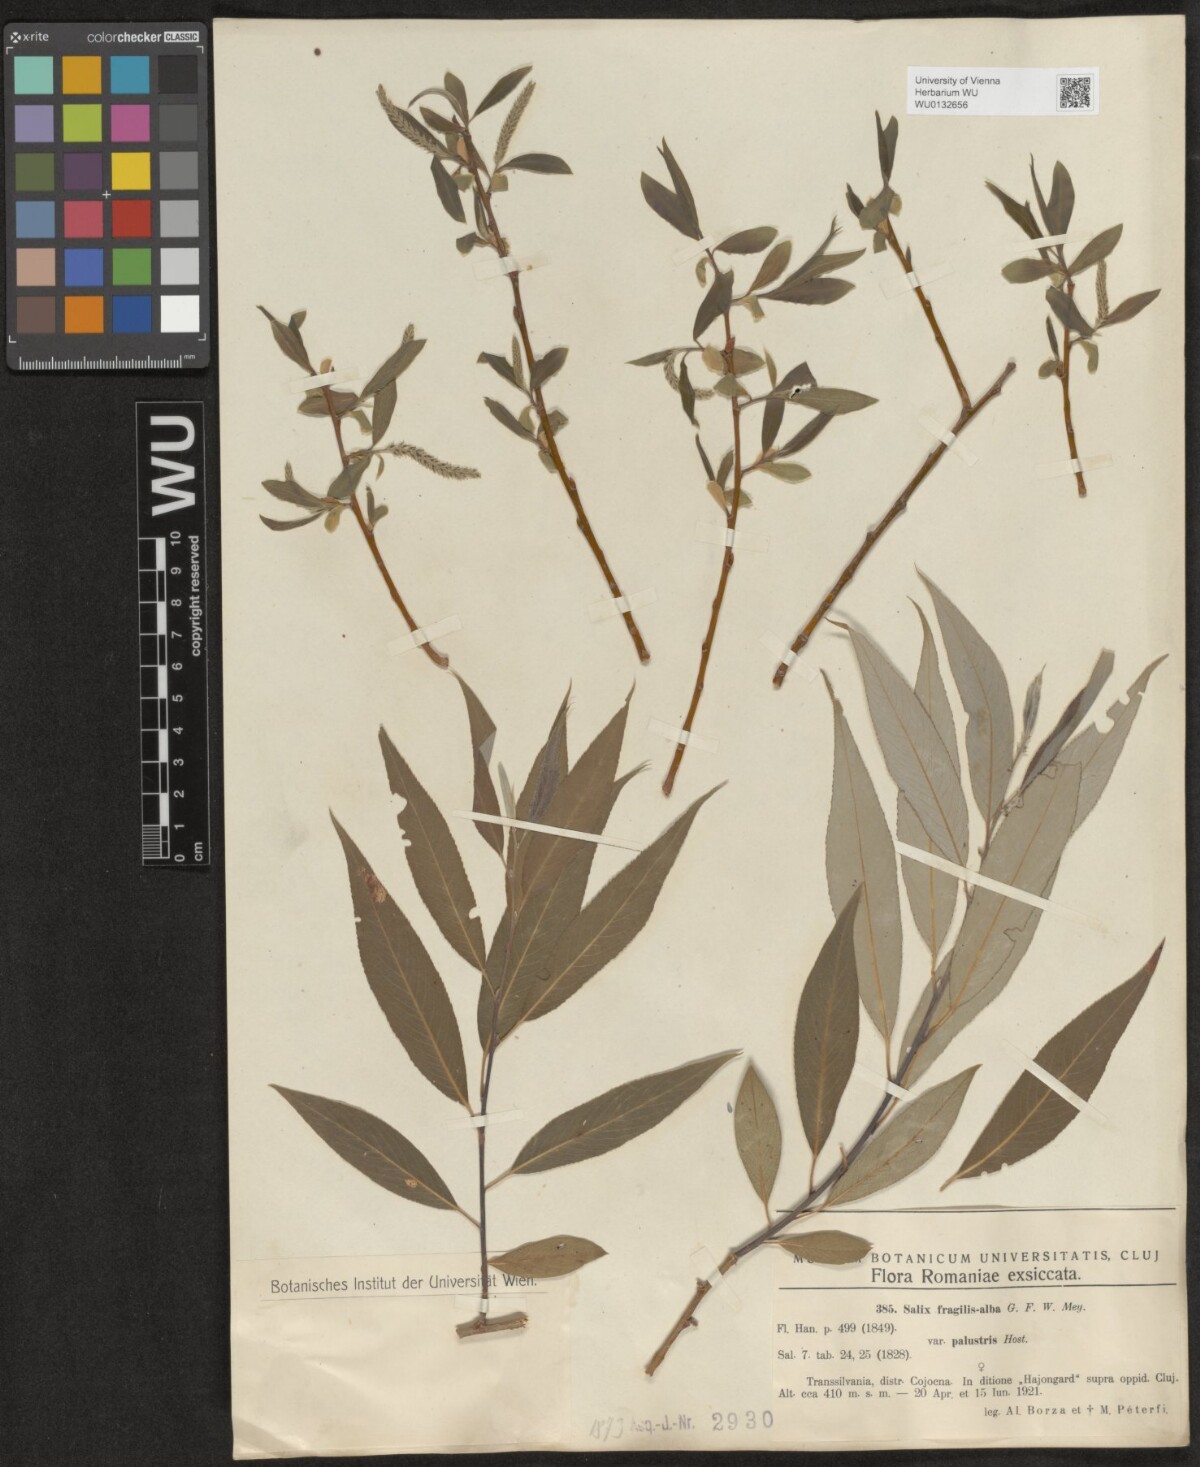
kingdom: Plantae
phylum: Tracheophyta
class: Magnoliopsida
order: Malpighiales
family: Salicaceae
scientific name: Salicaceae
